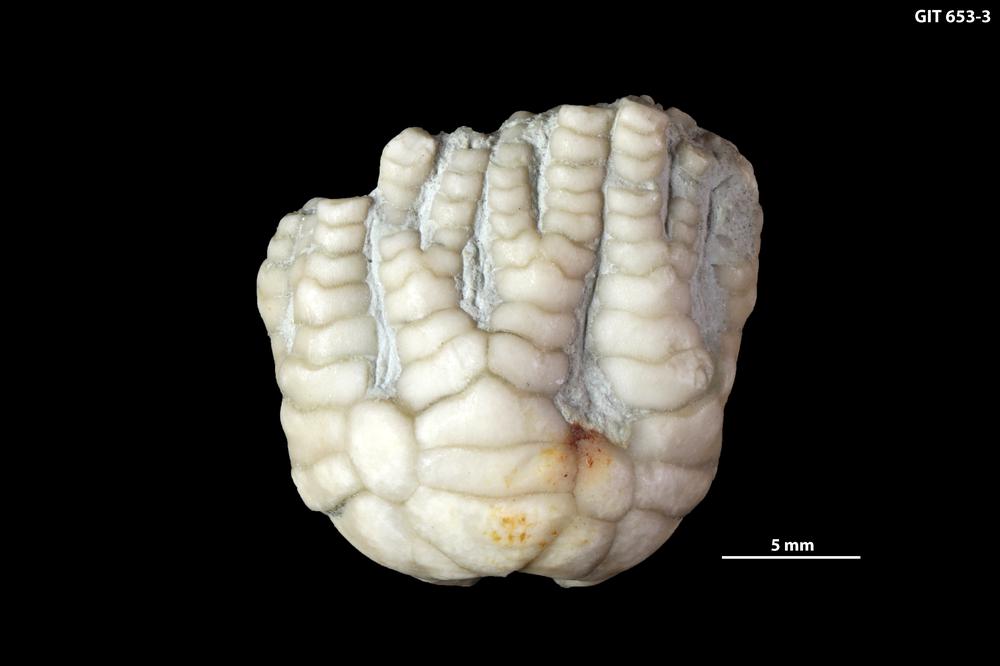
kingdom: Animalia
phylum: Echinodermata
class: Crinoidea
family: Homalocrinidae
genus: Tintinnabulicrinus
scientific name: Tintinnabulicrinus estoniensis
